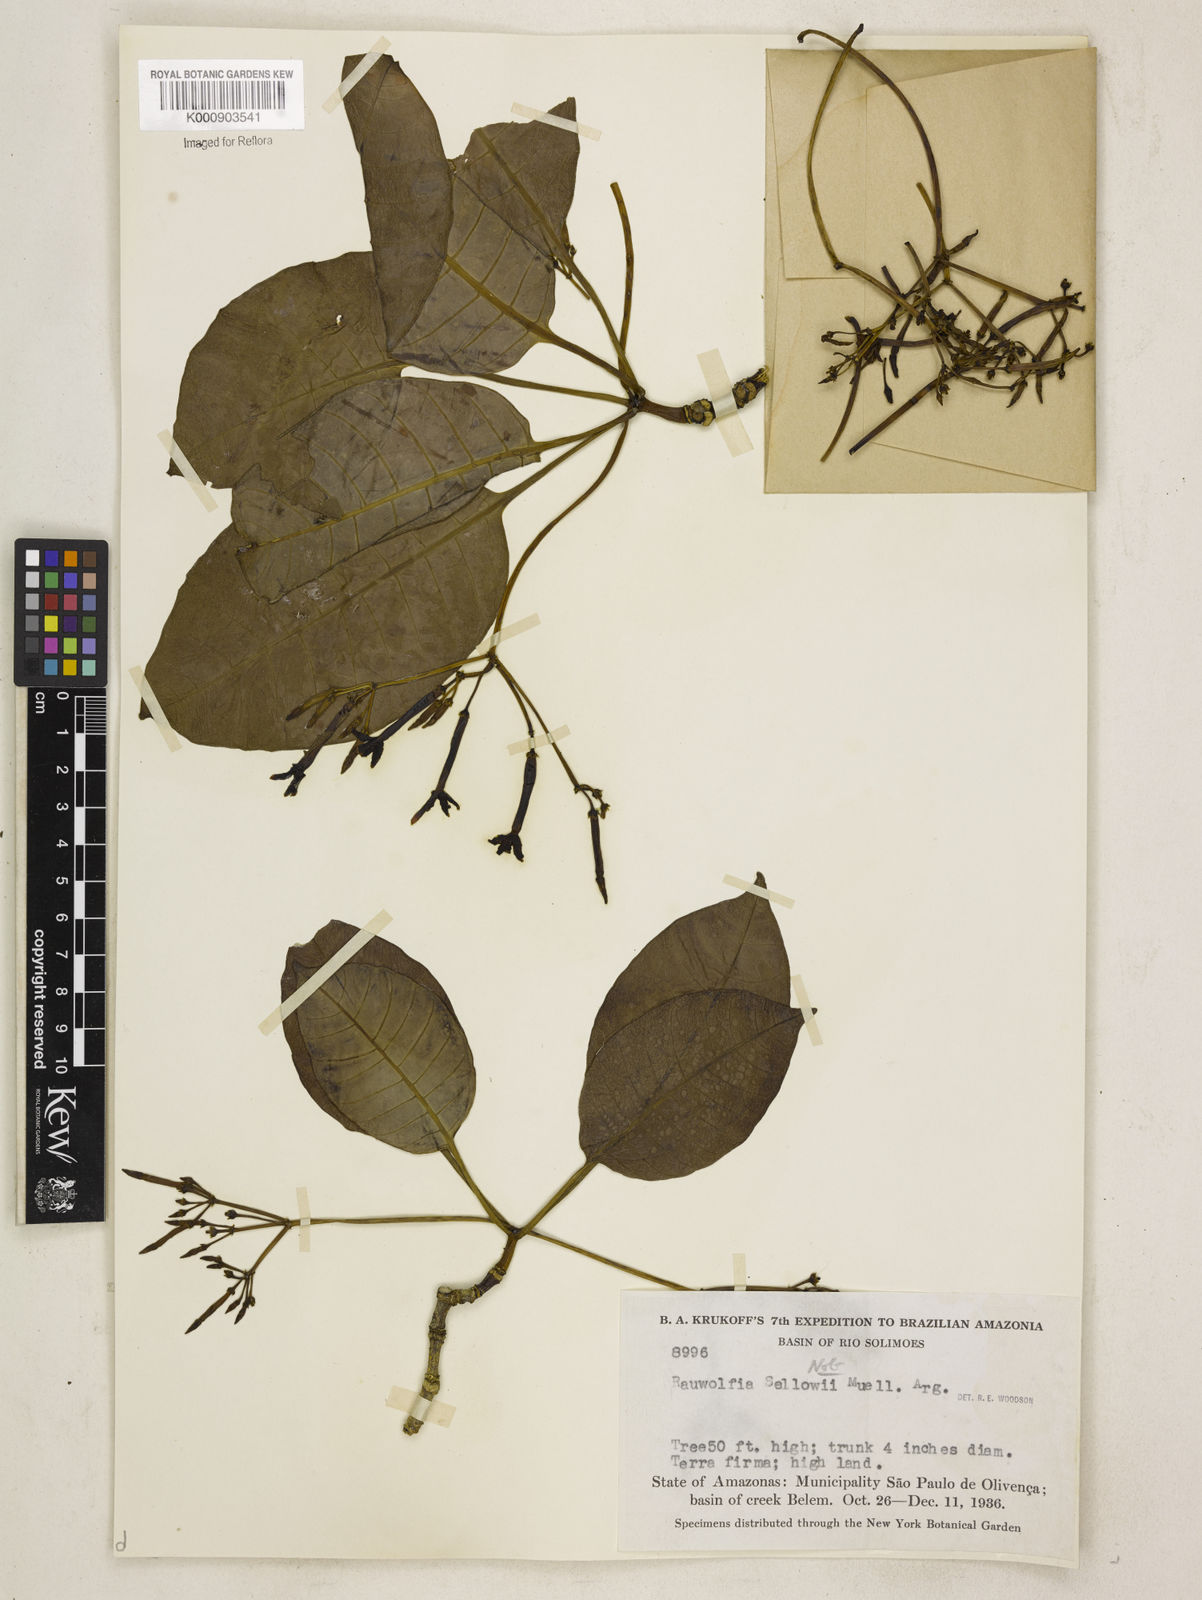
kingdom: Plantae
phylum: Tracheophyta
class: Magnoliopsida
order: Gentianales
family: Apocynaceae
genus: Rauvolfia
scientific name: Rauvolfia
